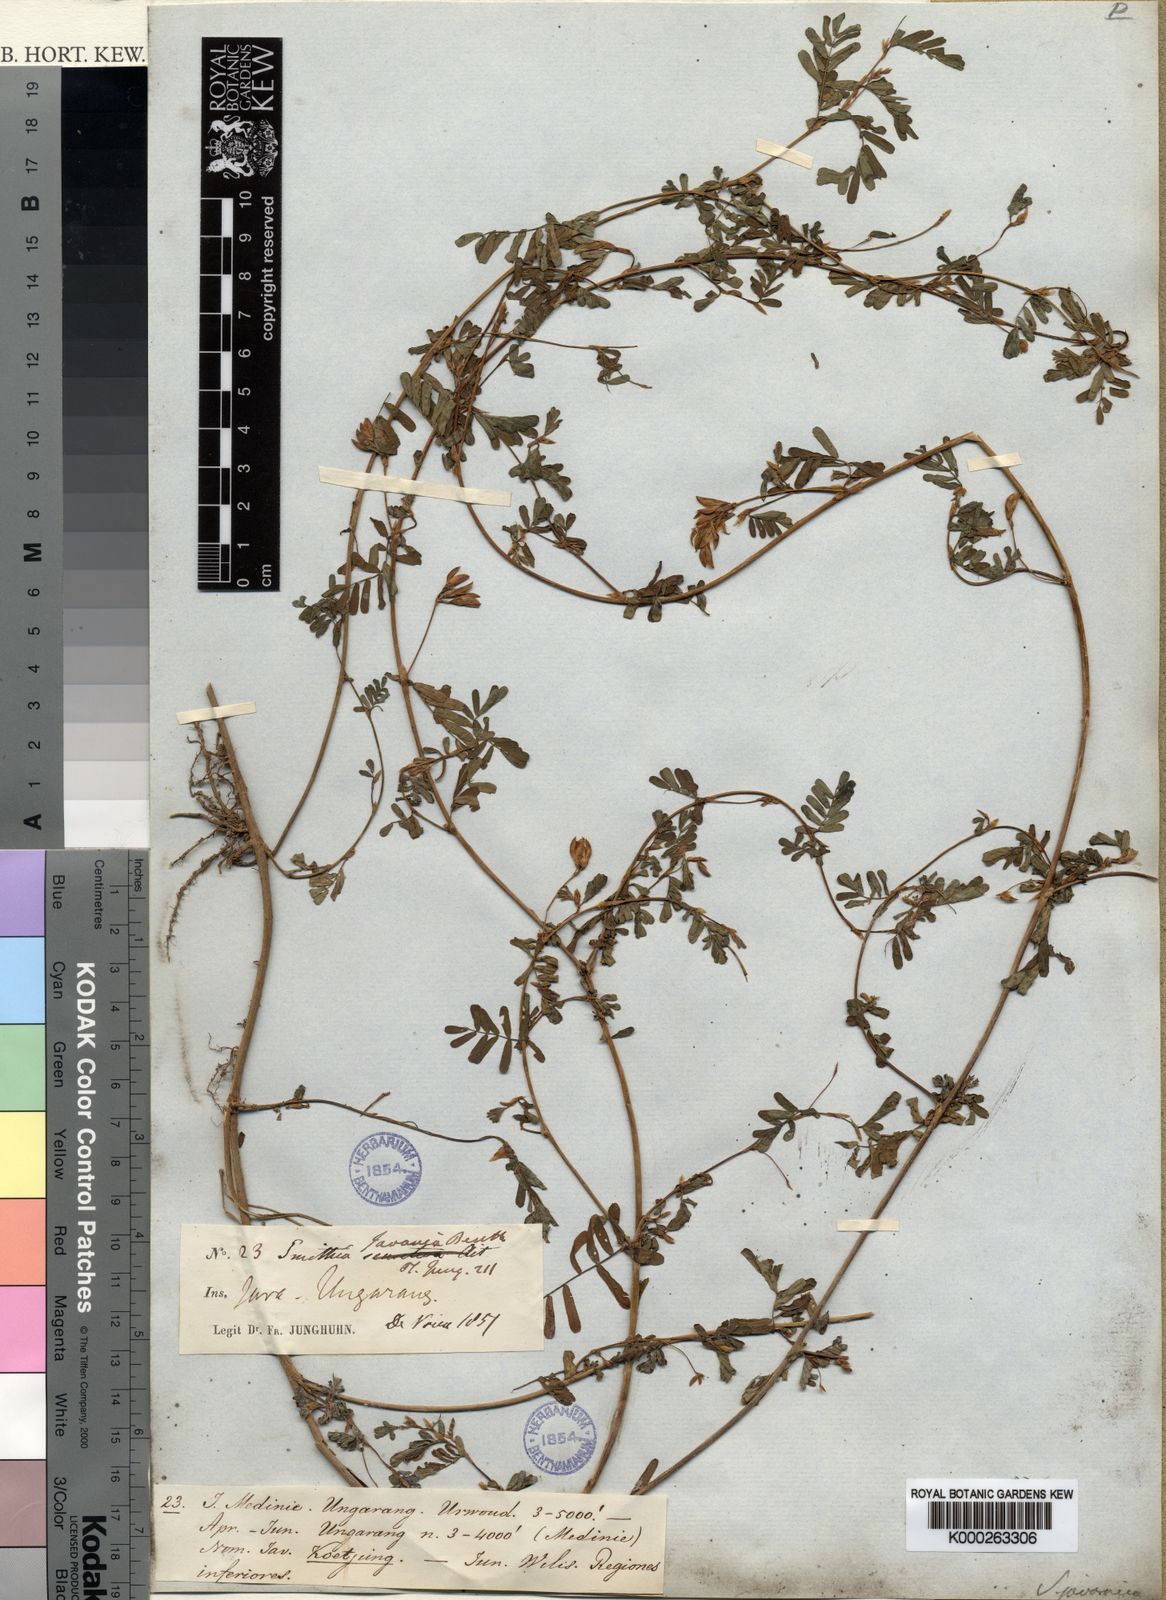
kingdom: Plantae
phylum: Tracheophyta
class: Magnoliopsida
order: Fabales
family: Fabaceae
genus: Smithia
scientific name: Smithia
